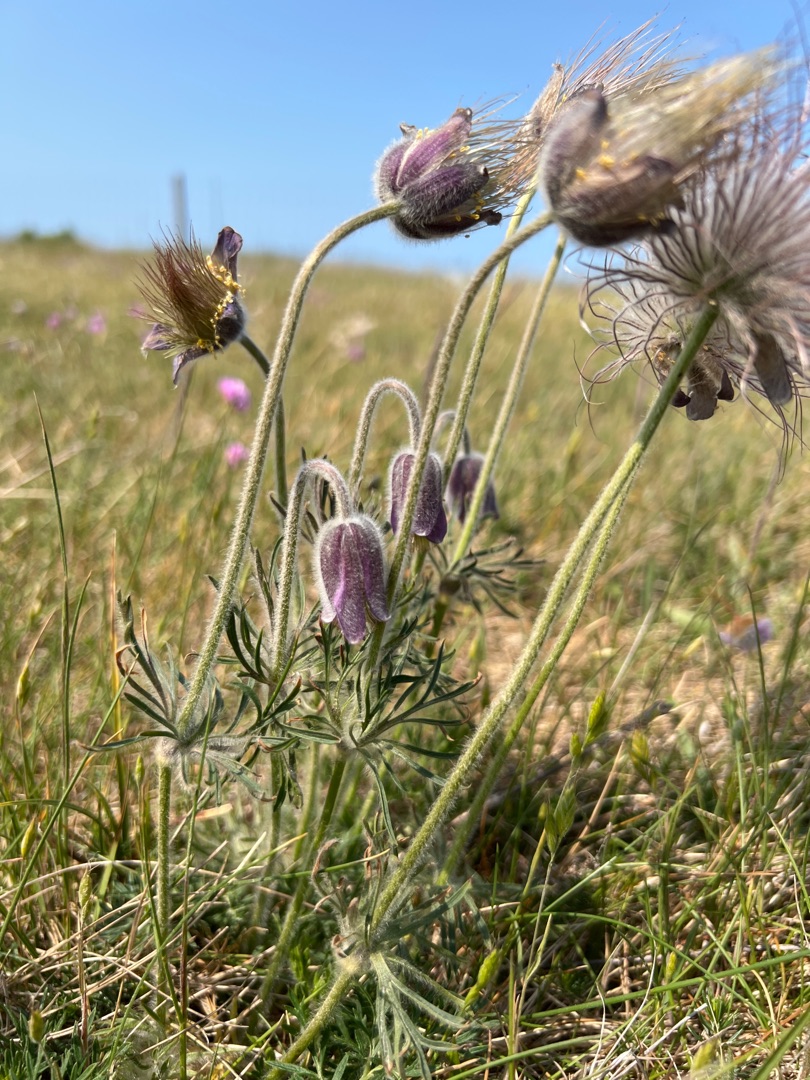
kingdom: Plantae
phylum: Tracheophyta
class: Magnoliopsida
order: Ranunculales
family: Ranunculaceae
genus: Pulsatilla
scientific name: Pulsatilla pratensis
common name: Nikkende kobjælde
